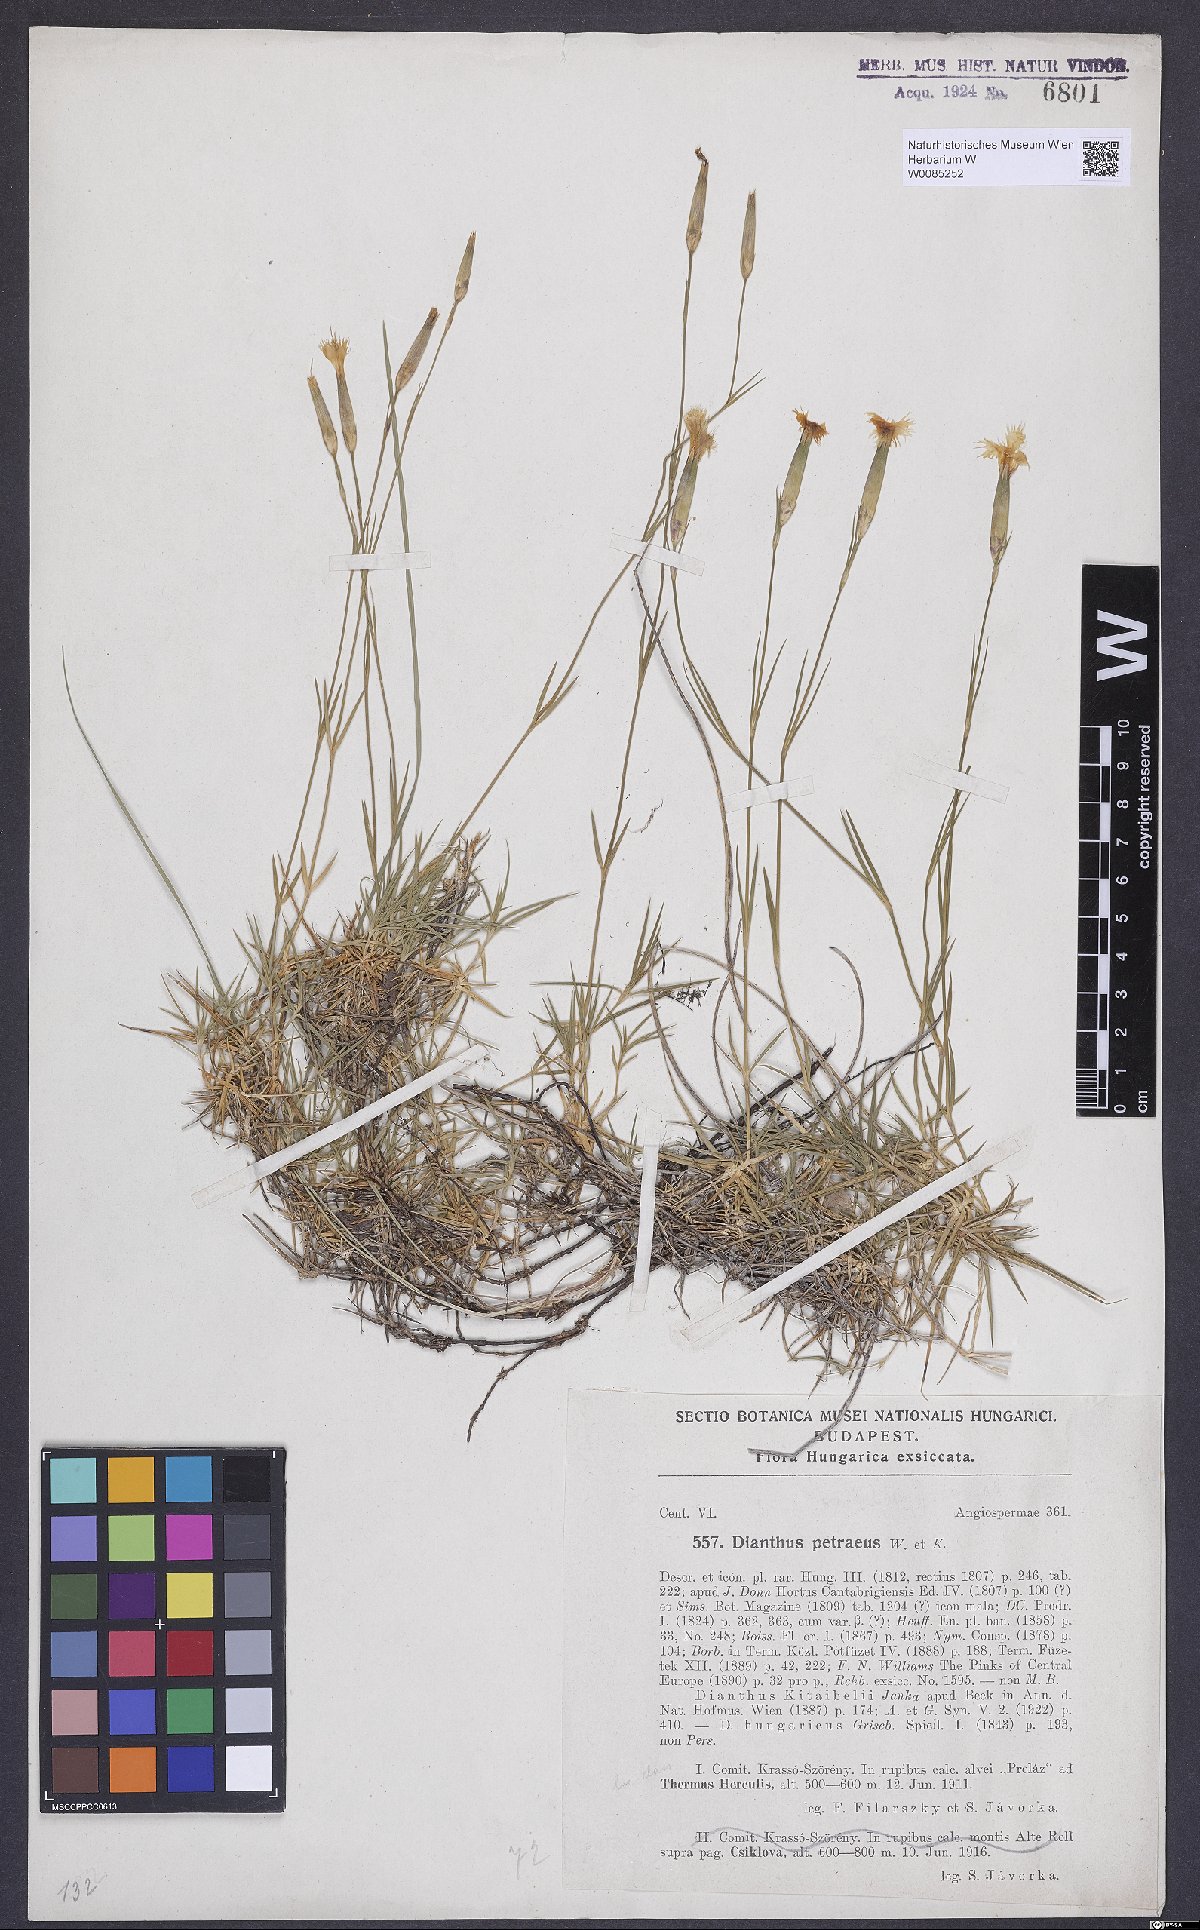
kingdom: Plantae
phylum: Tracheophyta
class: Magnoliopsida
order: Caryophyllales
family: Caryophyllaceae
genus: Dianthus
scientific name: Dianthus petraeus
